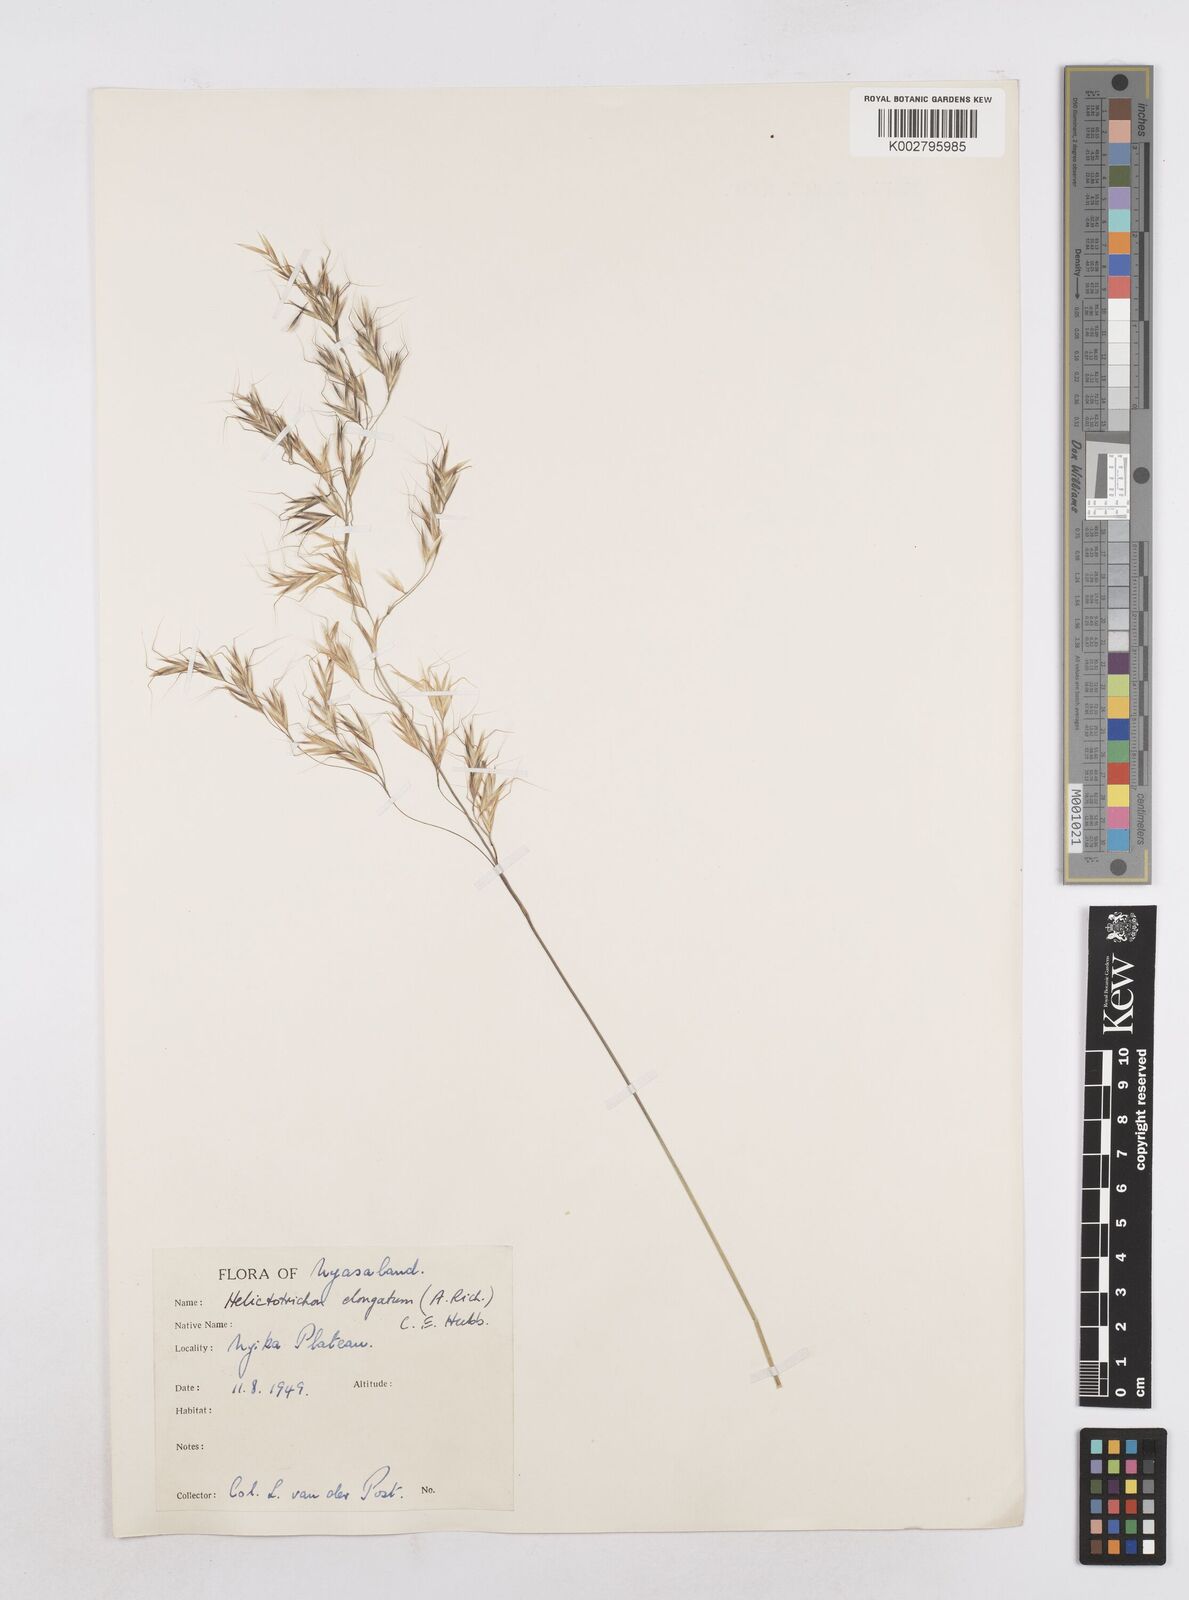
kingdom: Plantae
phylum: Tracheophyta
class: Liliopsida
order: Poales
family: Poaceae
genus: Trisetopsis
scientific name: Trisetopsis elongata
